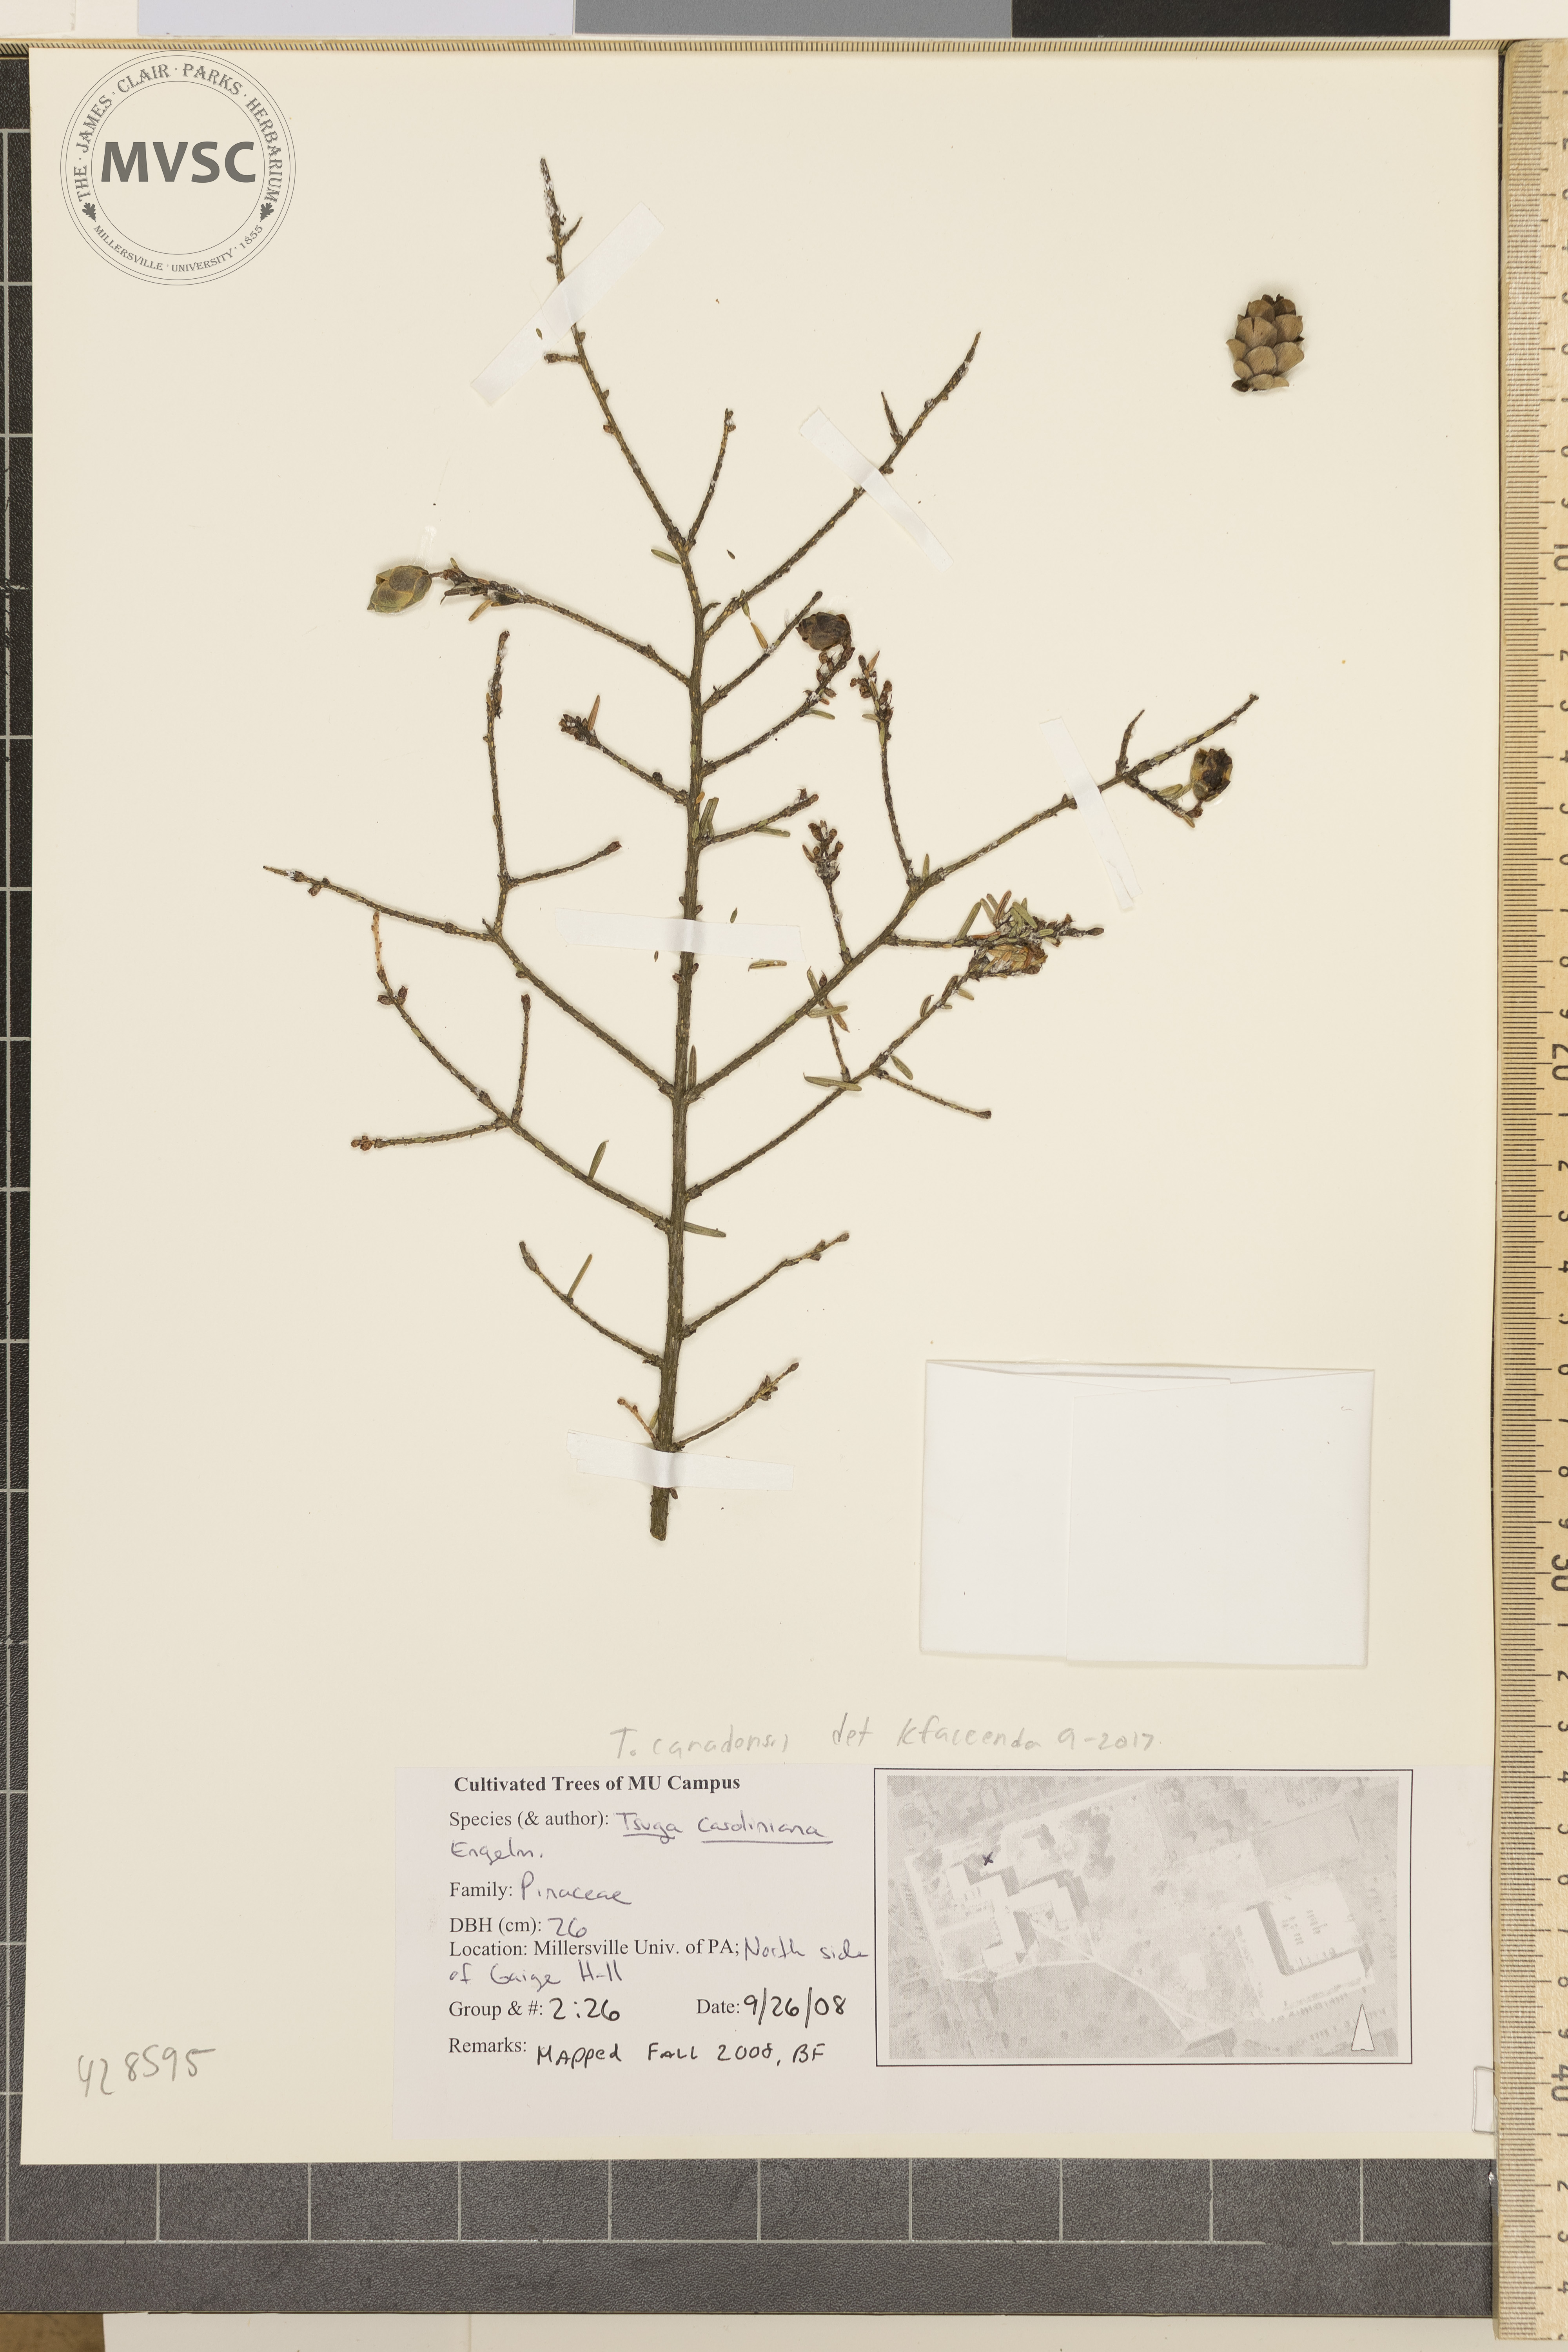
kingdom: Plantae
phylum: Tracheophyta
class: Pinopsida
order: Pinales
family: Pinaceae
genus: Tsuga
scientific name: Tsuga canadensis
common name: Eastern hemlock
